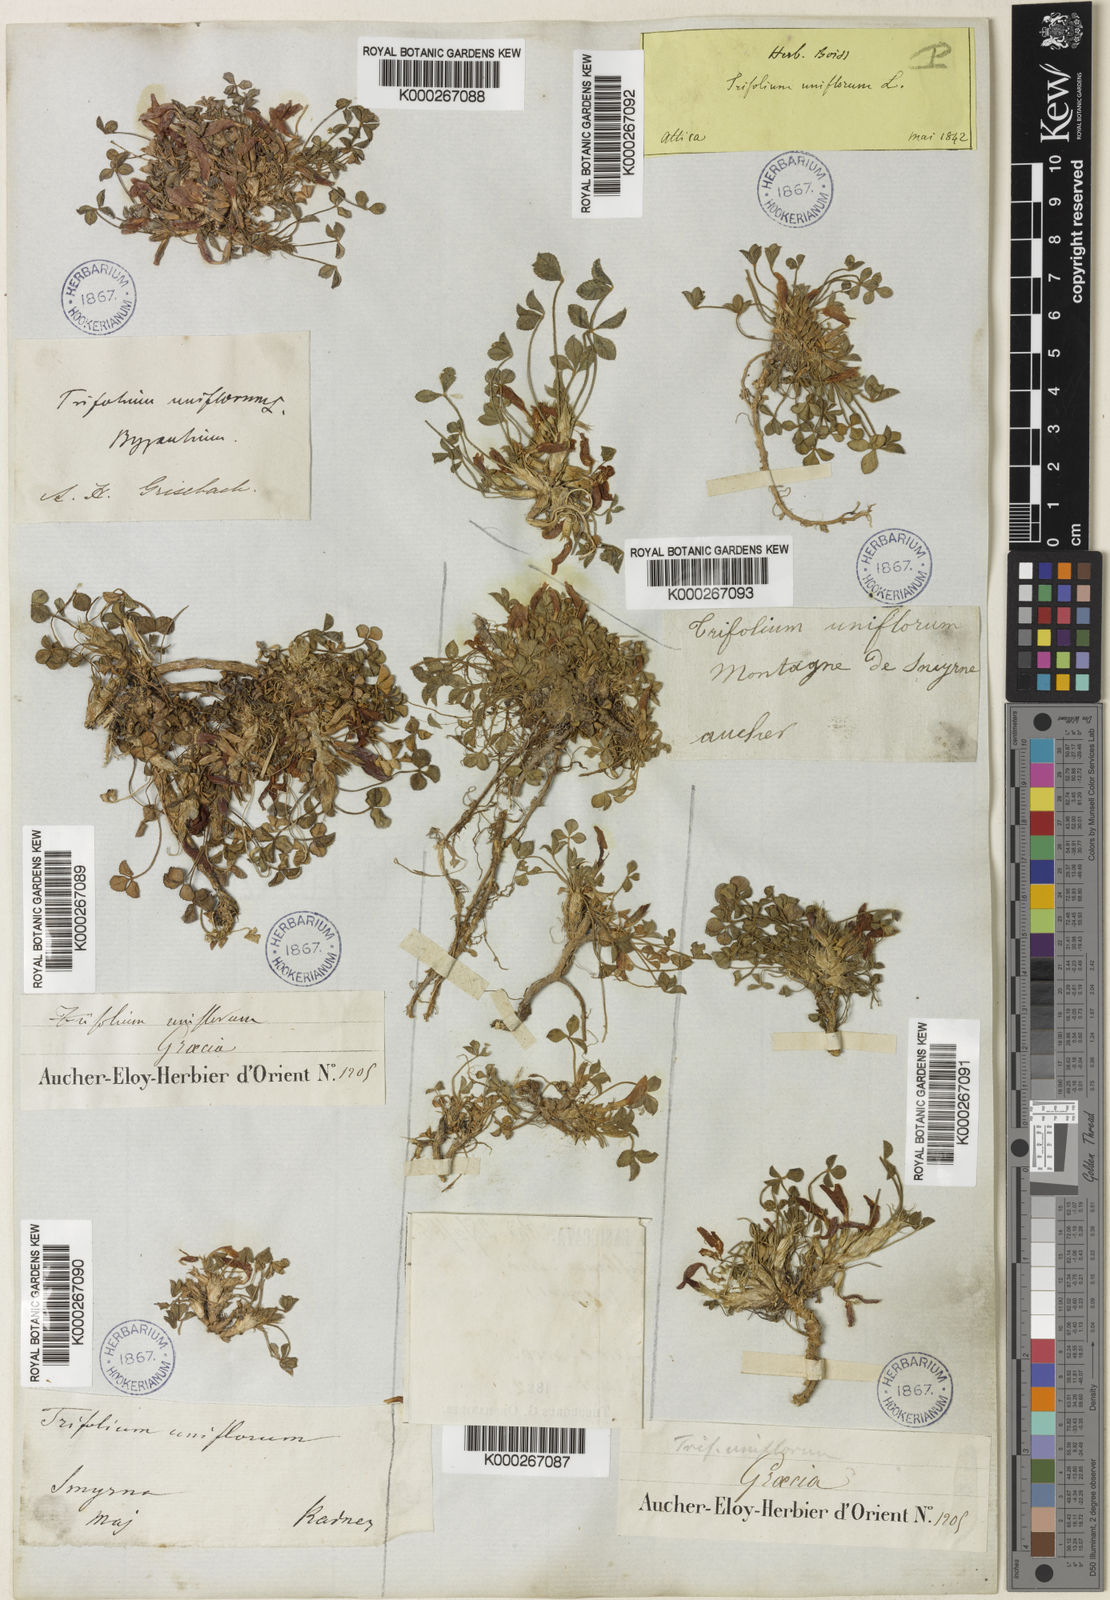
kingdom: Plantae
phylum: Tracheophyta
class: Magnoliopsida
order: Fabales
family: Fabaceae
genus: Trifolium
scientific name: Trifolium uniflorum
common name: One-flower clover
